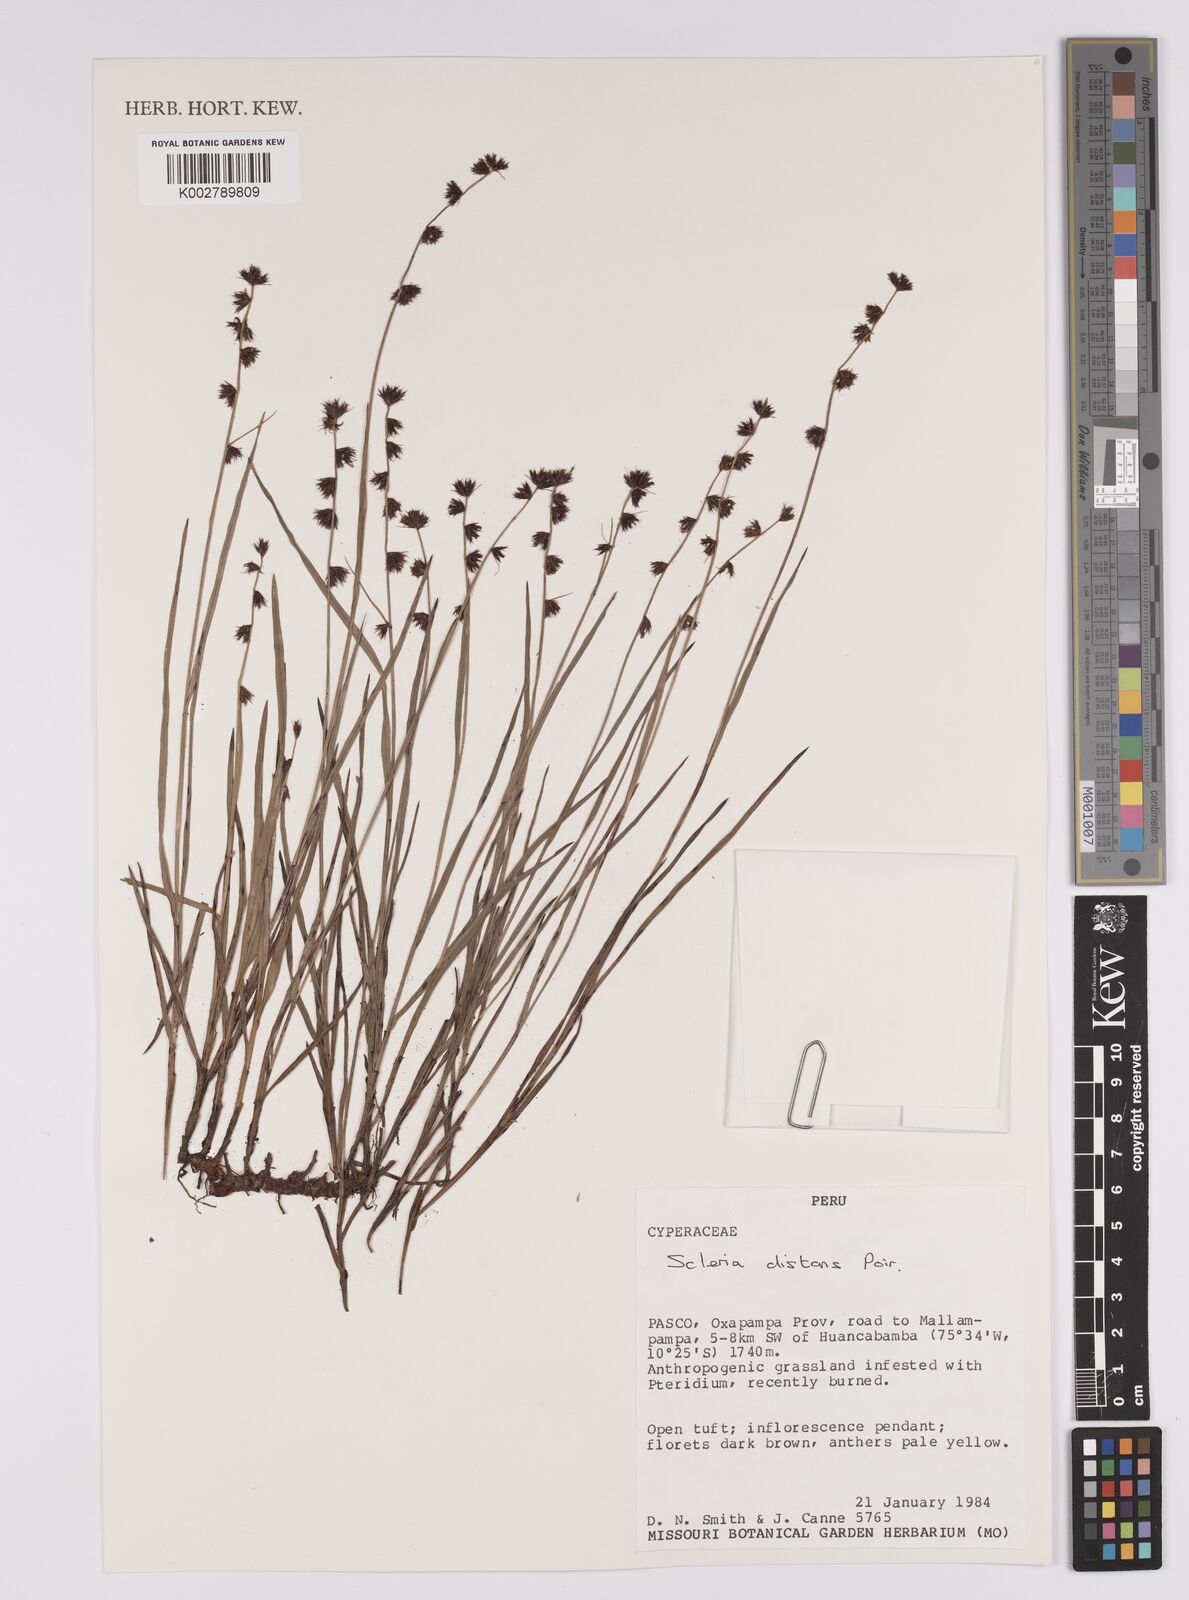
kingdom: Plantae
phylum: Tracheophyta
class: Liliopsida
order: Poales
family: Cyperaceae
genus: Scleria
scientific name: Scleria distans
